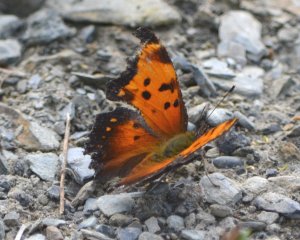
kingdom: Animalia
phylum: Arthropoda
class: Insecta
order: Lepidoptera
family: Nymphalidae
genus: Polygonia
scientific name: Polygonia progne
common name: Gray Comma
